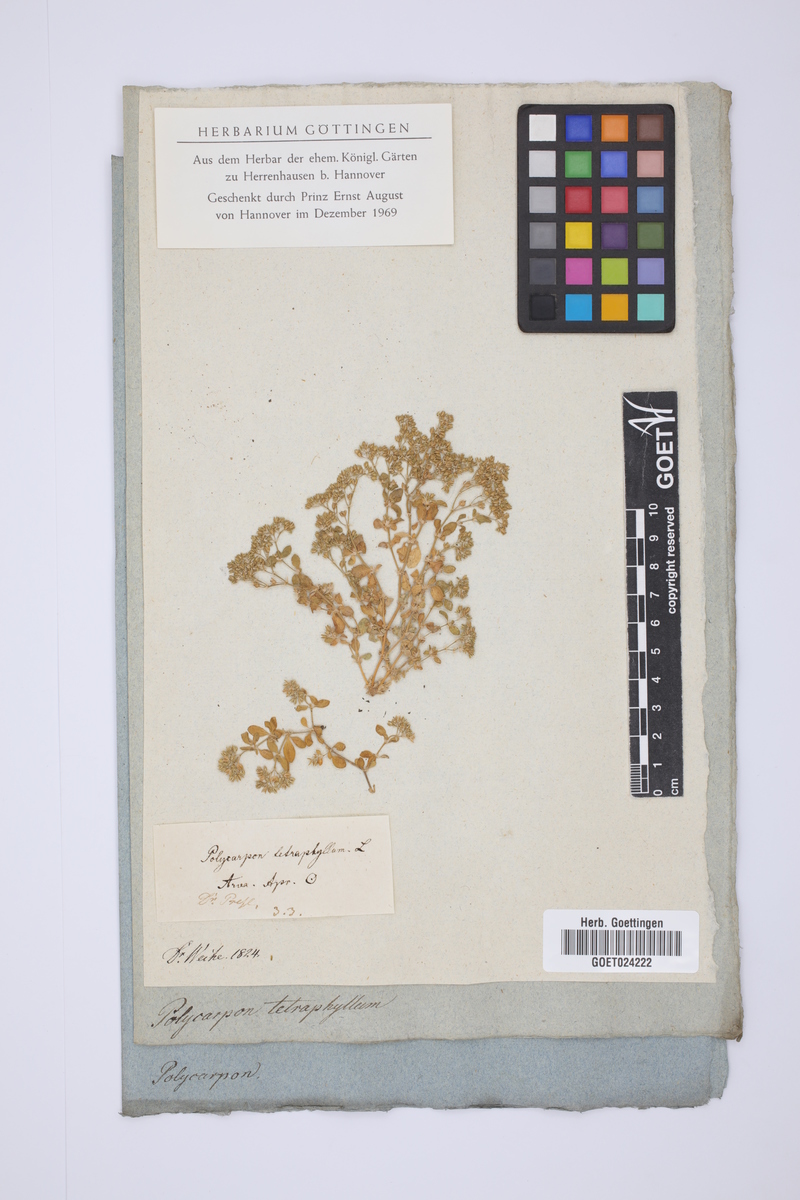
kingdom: Plantae
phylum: Tracheophyta
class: Magnoliopsida
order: Caryophyllales
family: Caryophyllaceae
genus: Polycarpon
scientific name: Polycarpon tetraphyllum
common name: Four-leaved all-seed
